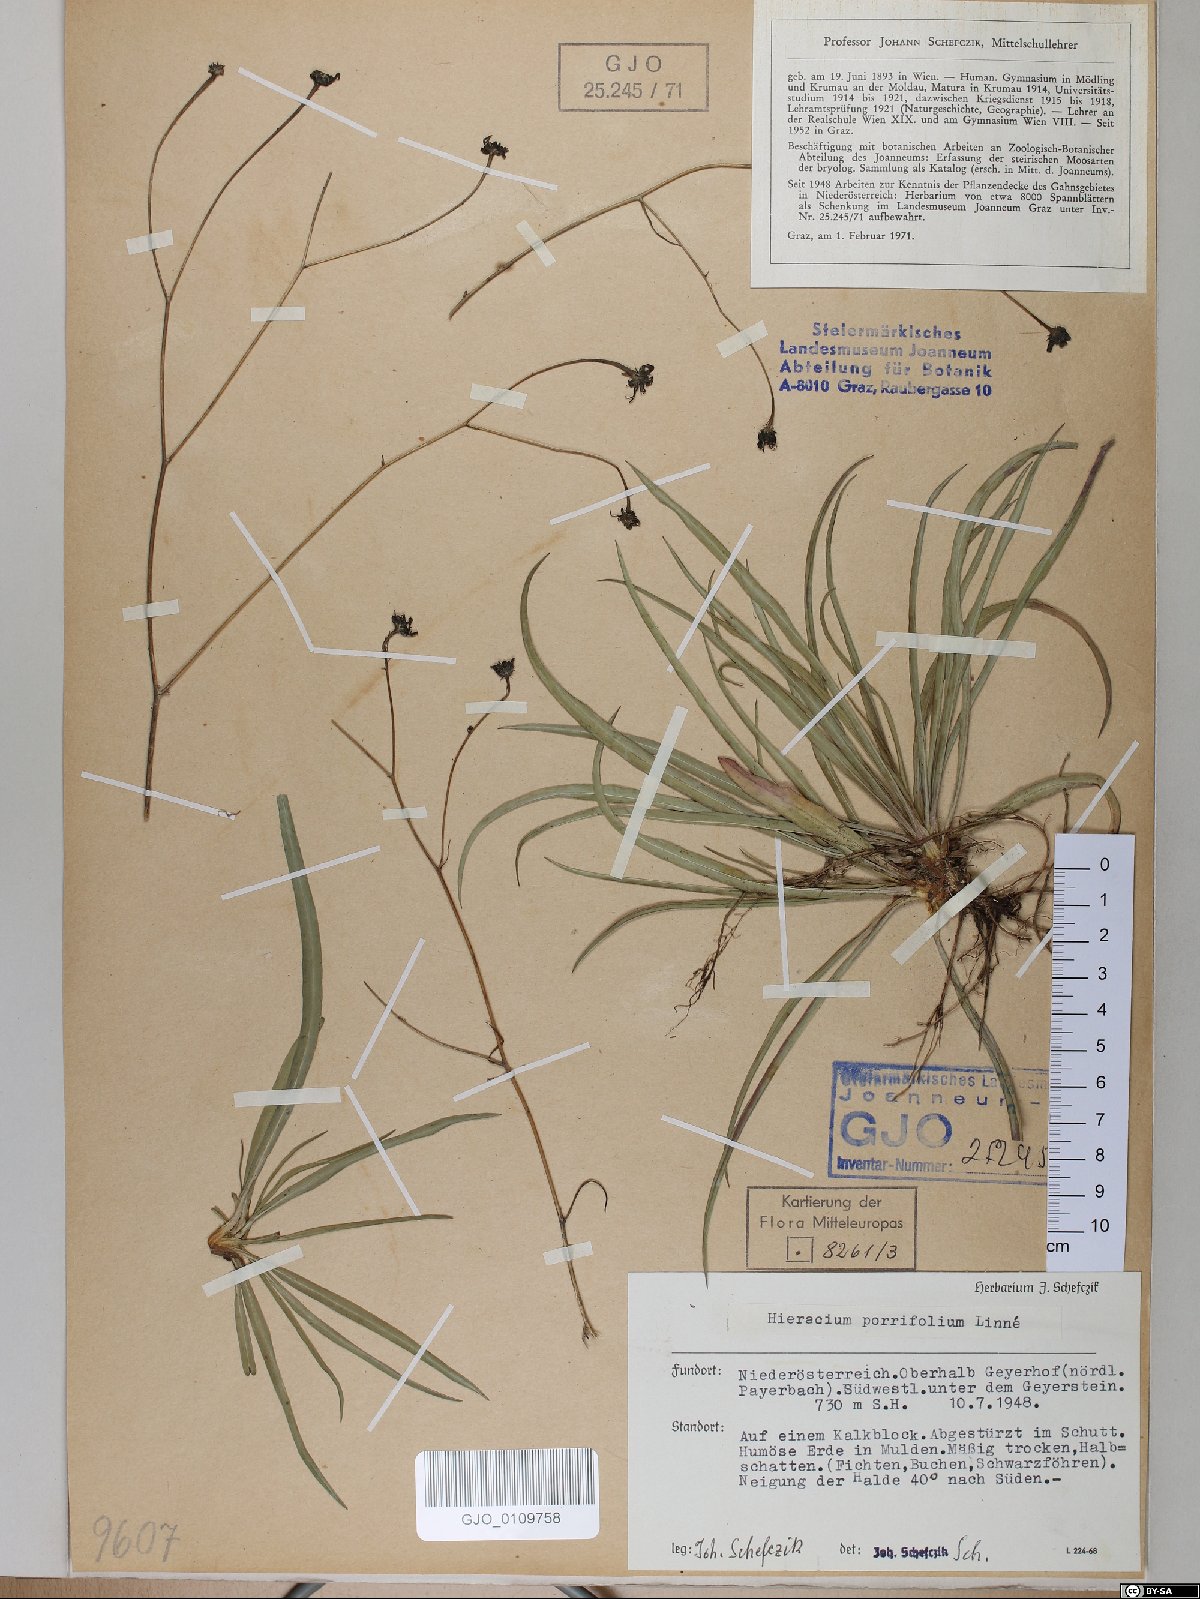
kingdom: Plantae
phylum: Tracheophyta
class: Magnoliopsida
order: Asterales
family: Asteraceae
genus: Hieracium
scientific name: Hieracium porrifolium
